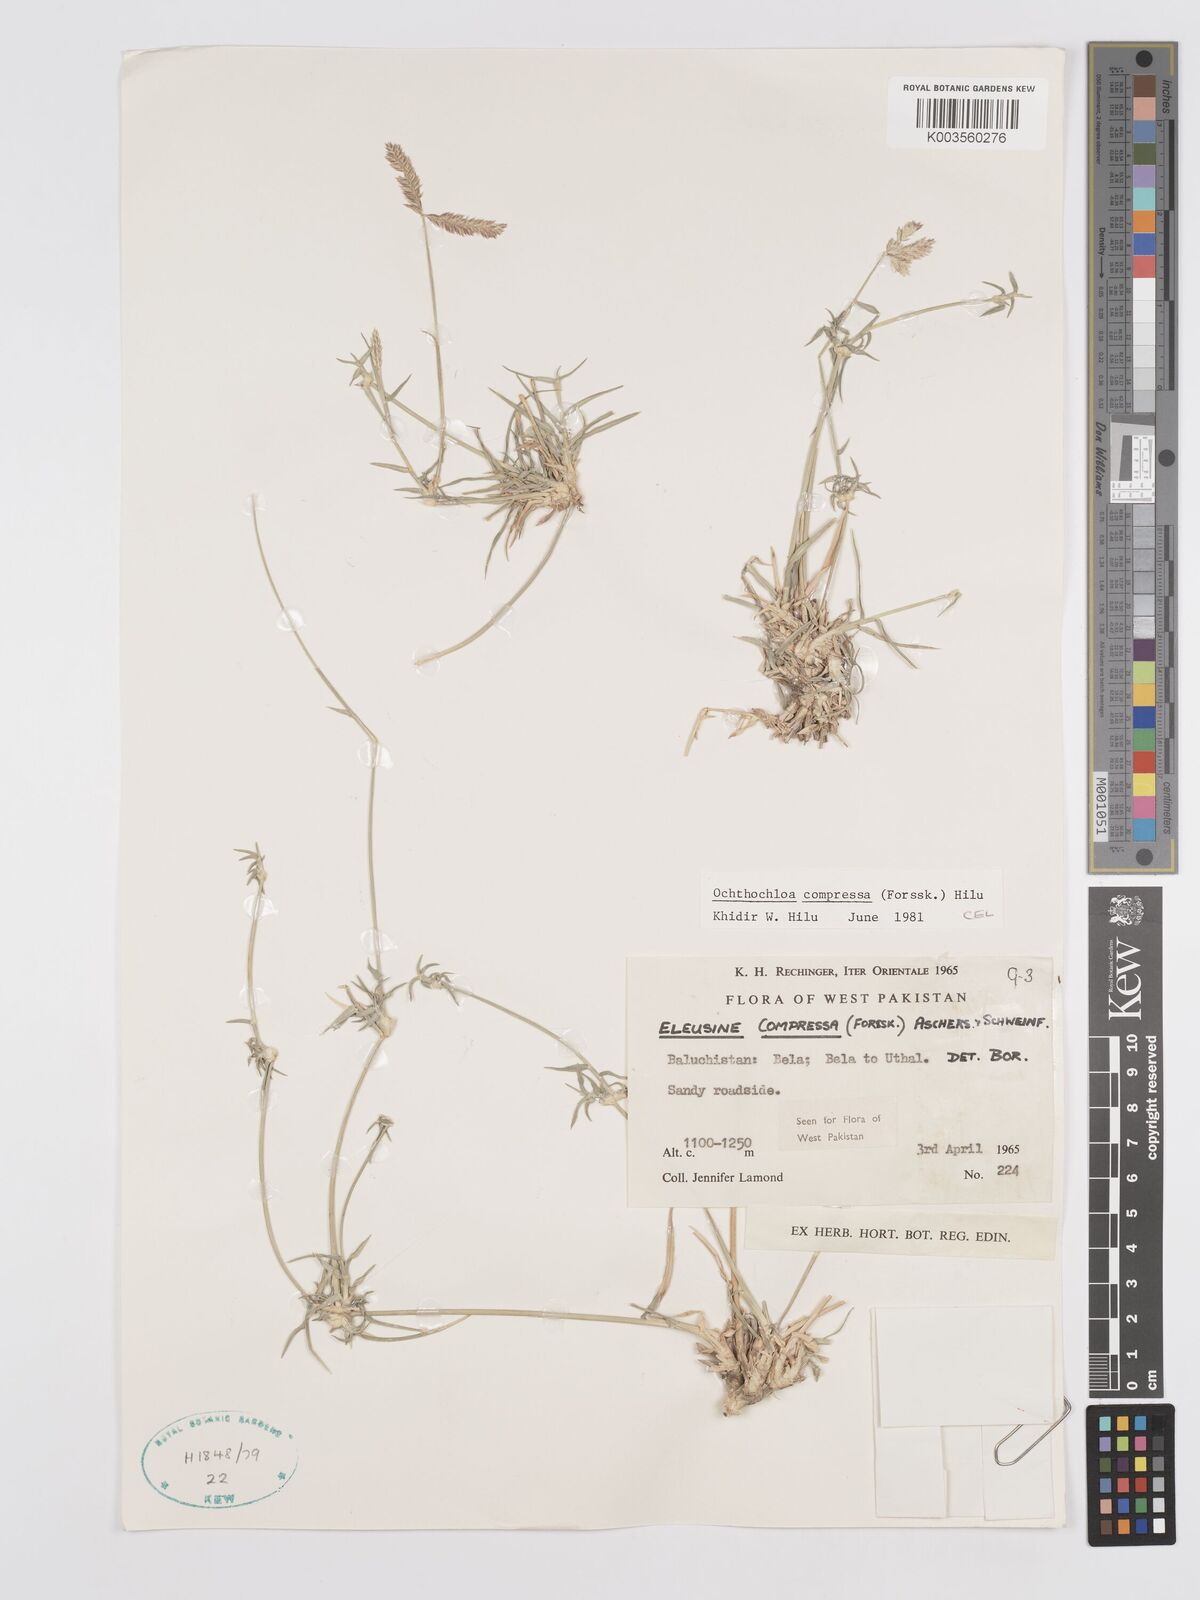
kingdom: Plantae
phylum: Tracheophyta
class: Liliopsida
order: Poales
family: Poaceae
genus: Chloris
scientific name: Chloris flagellifera
